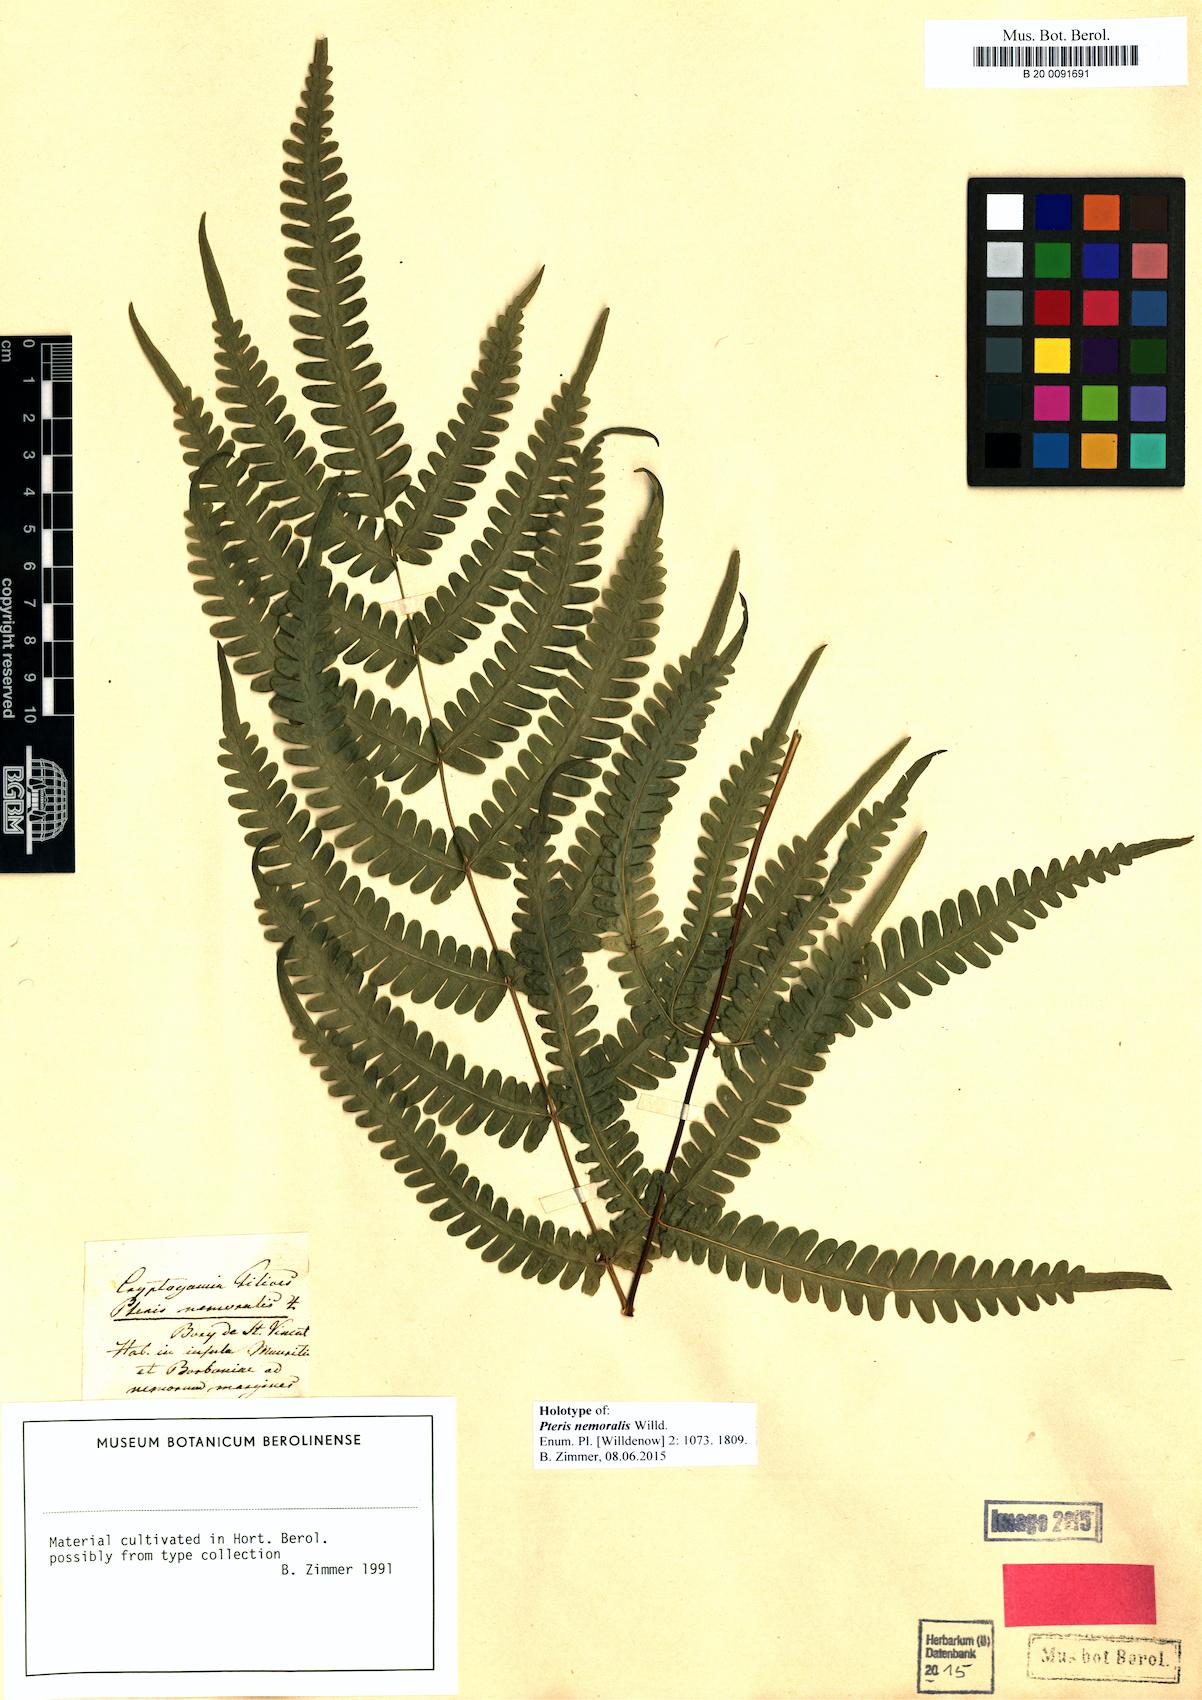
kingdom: Plantae
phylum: Tracheophyta
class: Polypodiopsida
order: Polypodiales
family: Pteridaceae
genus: Pteris
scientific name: Pteris quadriaurita
